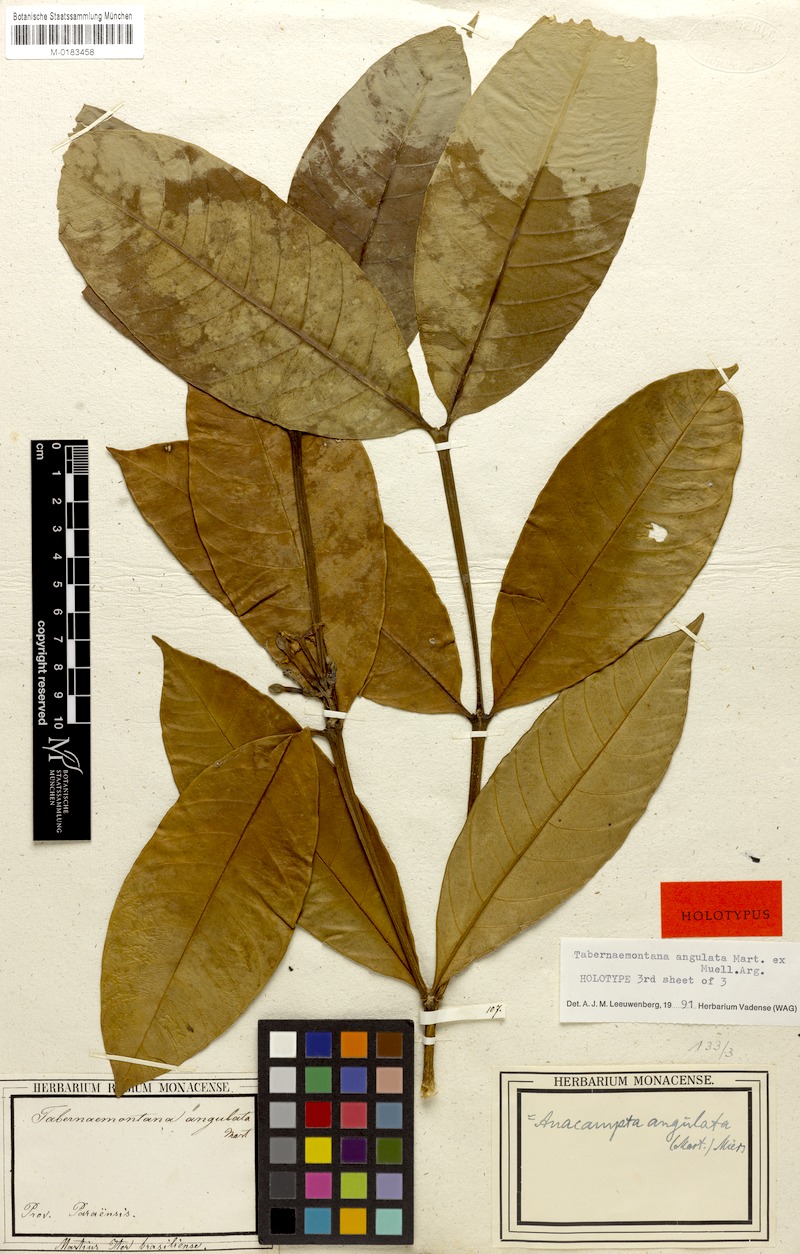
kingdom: Plantae
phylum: Tracheophyta
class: Magnoliopsida
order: Gentianales
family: Apocynaceae
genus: Tabernaemontana
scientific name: Tabernaemontana angulata
